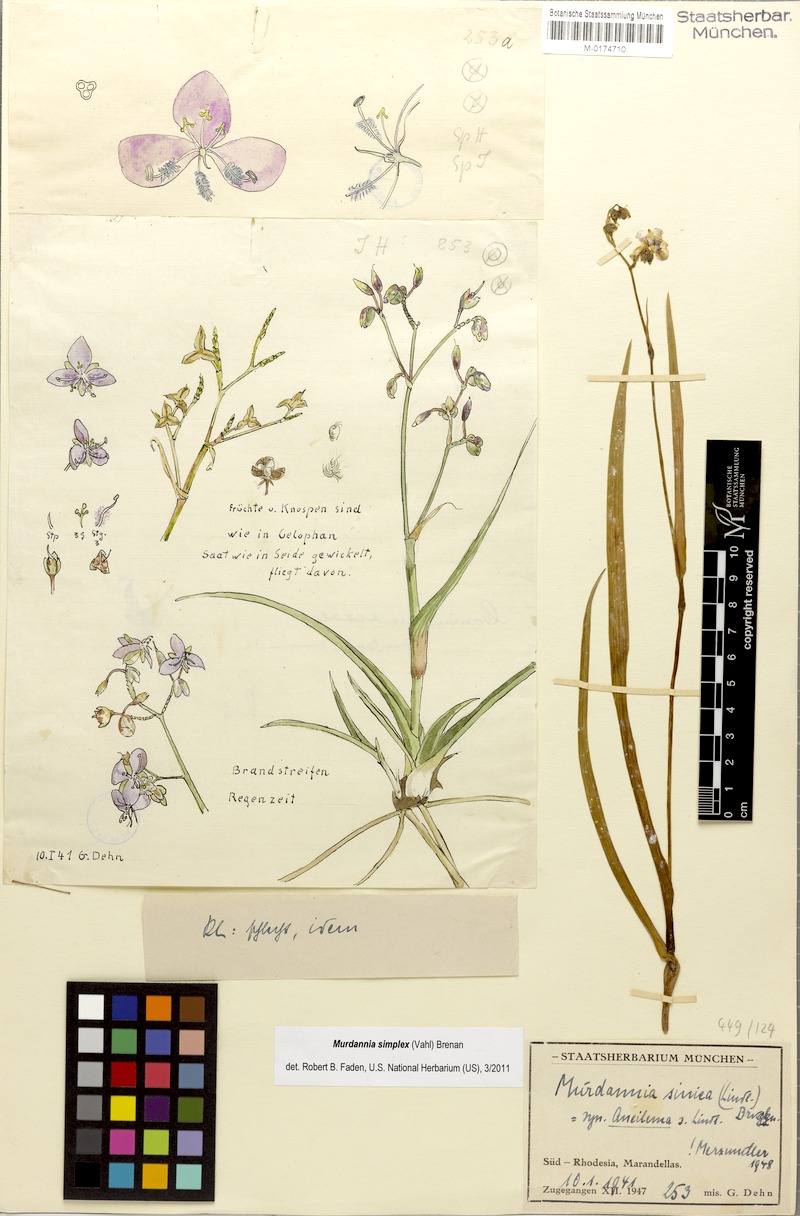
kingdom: Plantae
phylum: Tracheophyta
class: Liliopsida
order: Commelinales
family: Commelinaceae
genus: Murdannia
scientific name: Murdannia simplex
